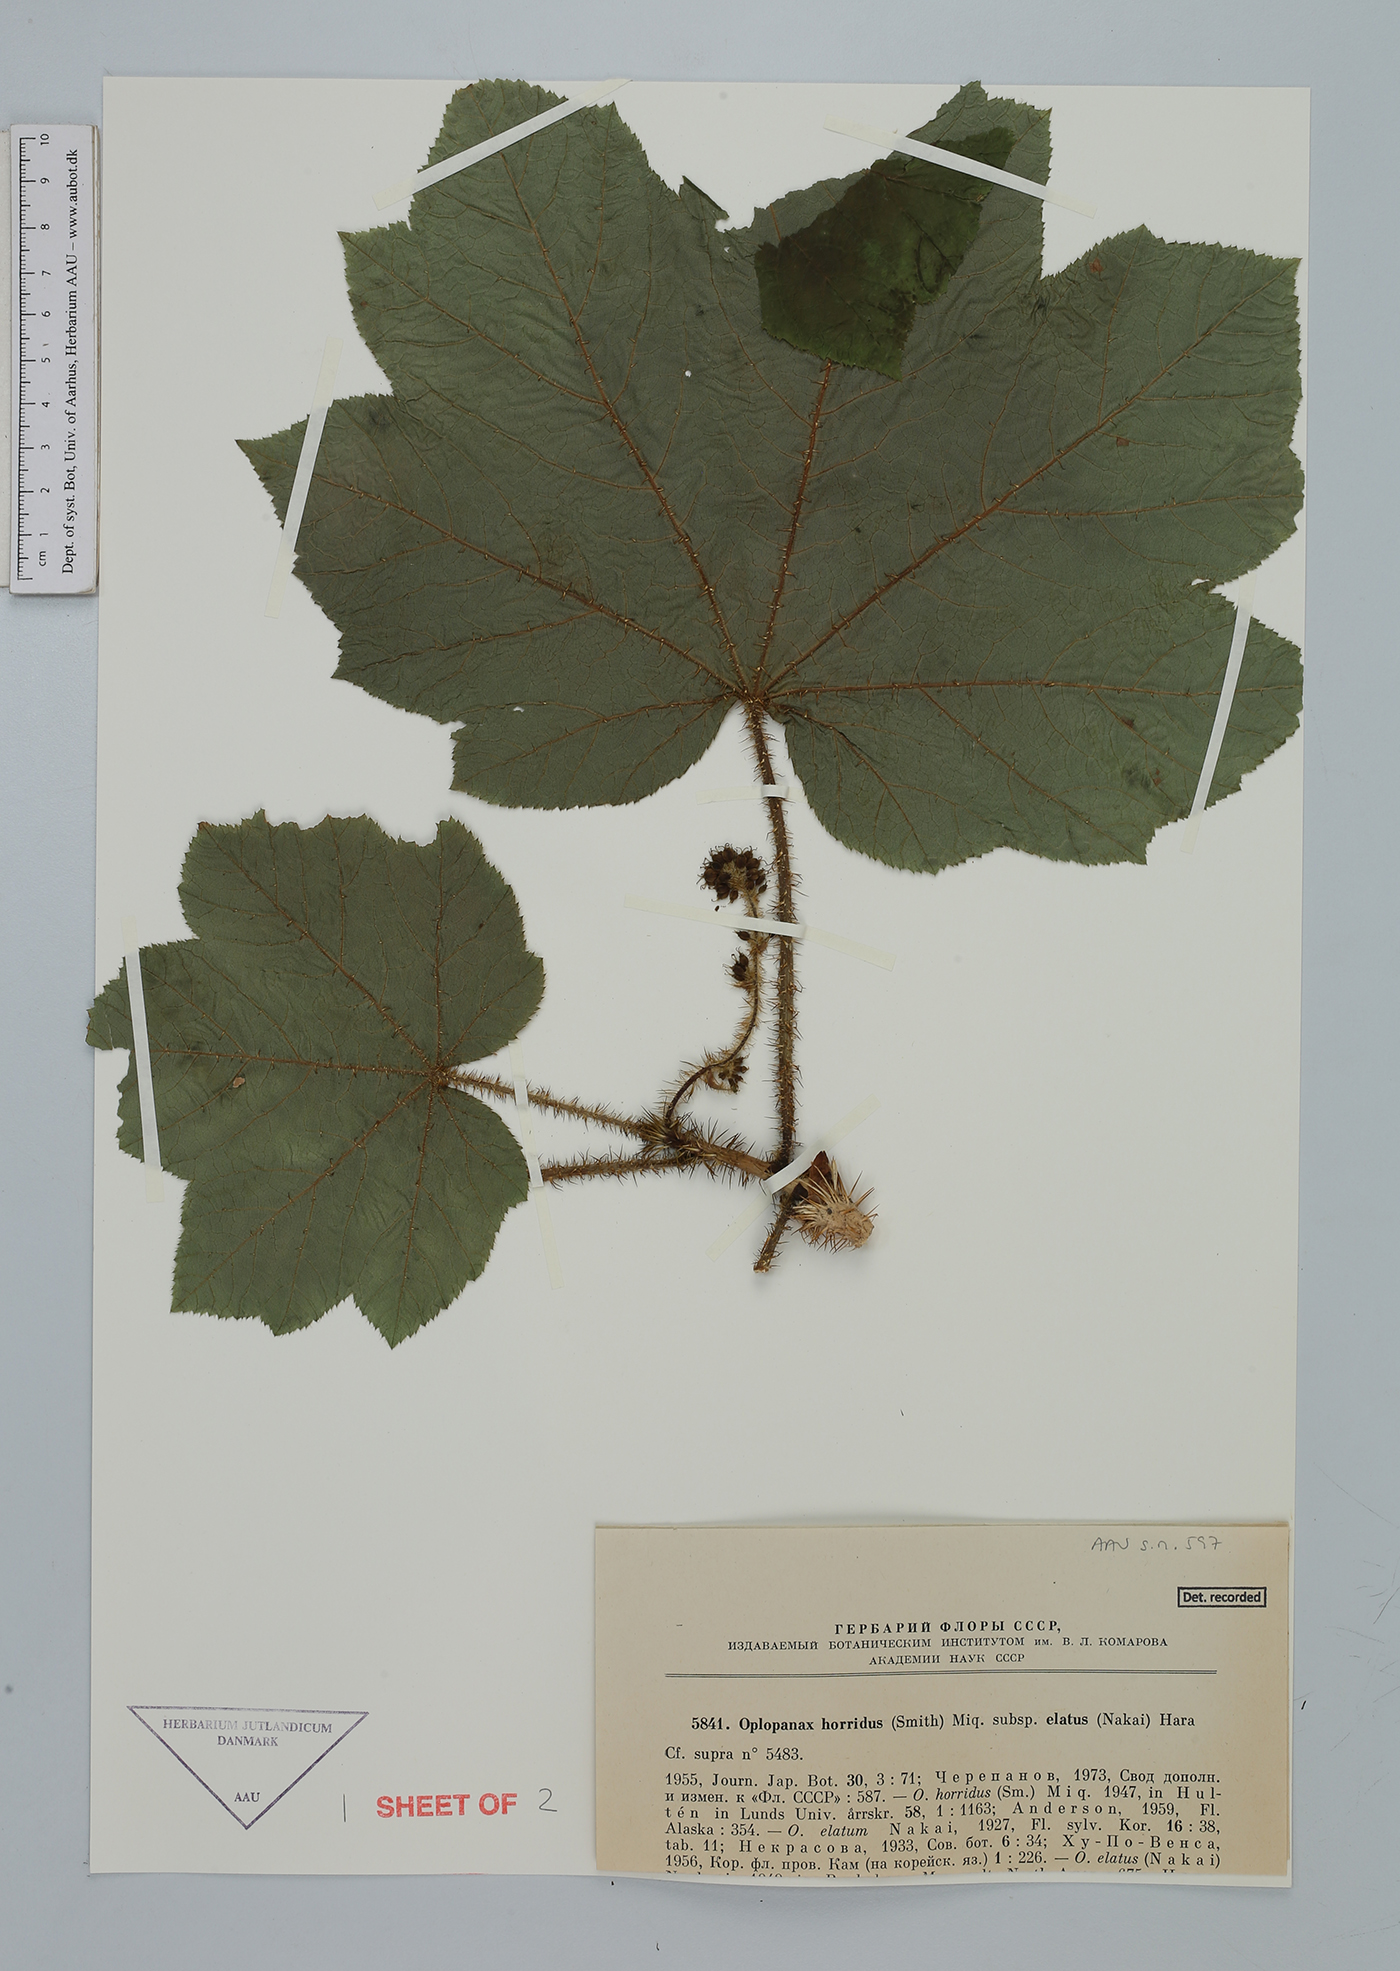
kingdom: Plantae
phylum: Tracheophyta
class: Magnoliopsida
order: Apiales
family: Araliaceae
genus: Oplopanax
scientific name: Oplopanax horridus
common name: Devil's walking-stick
